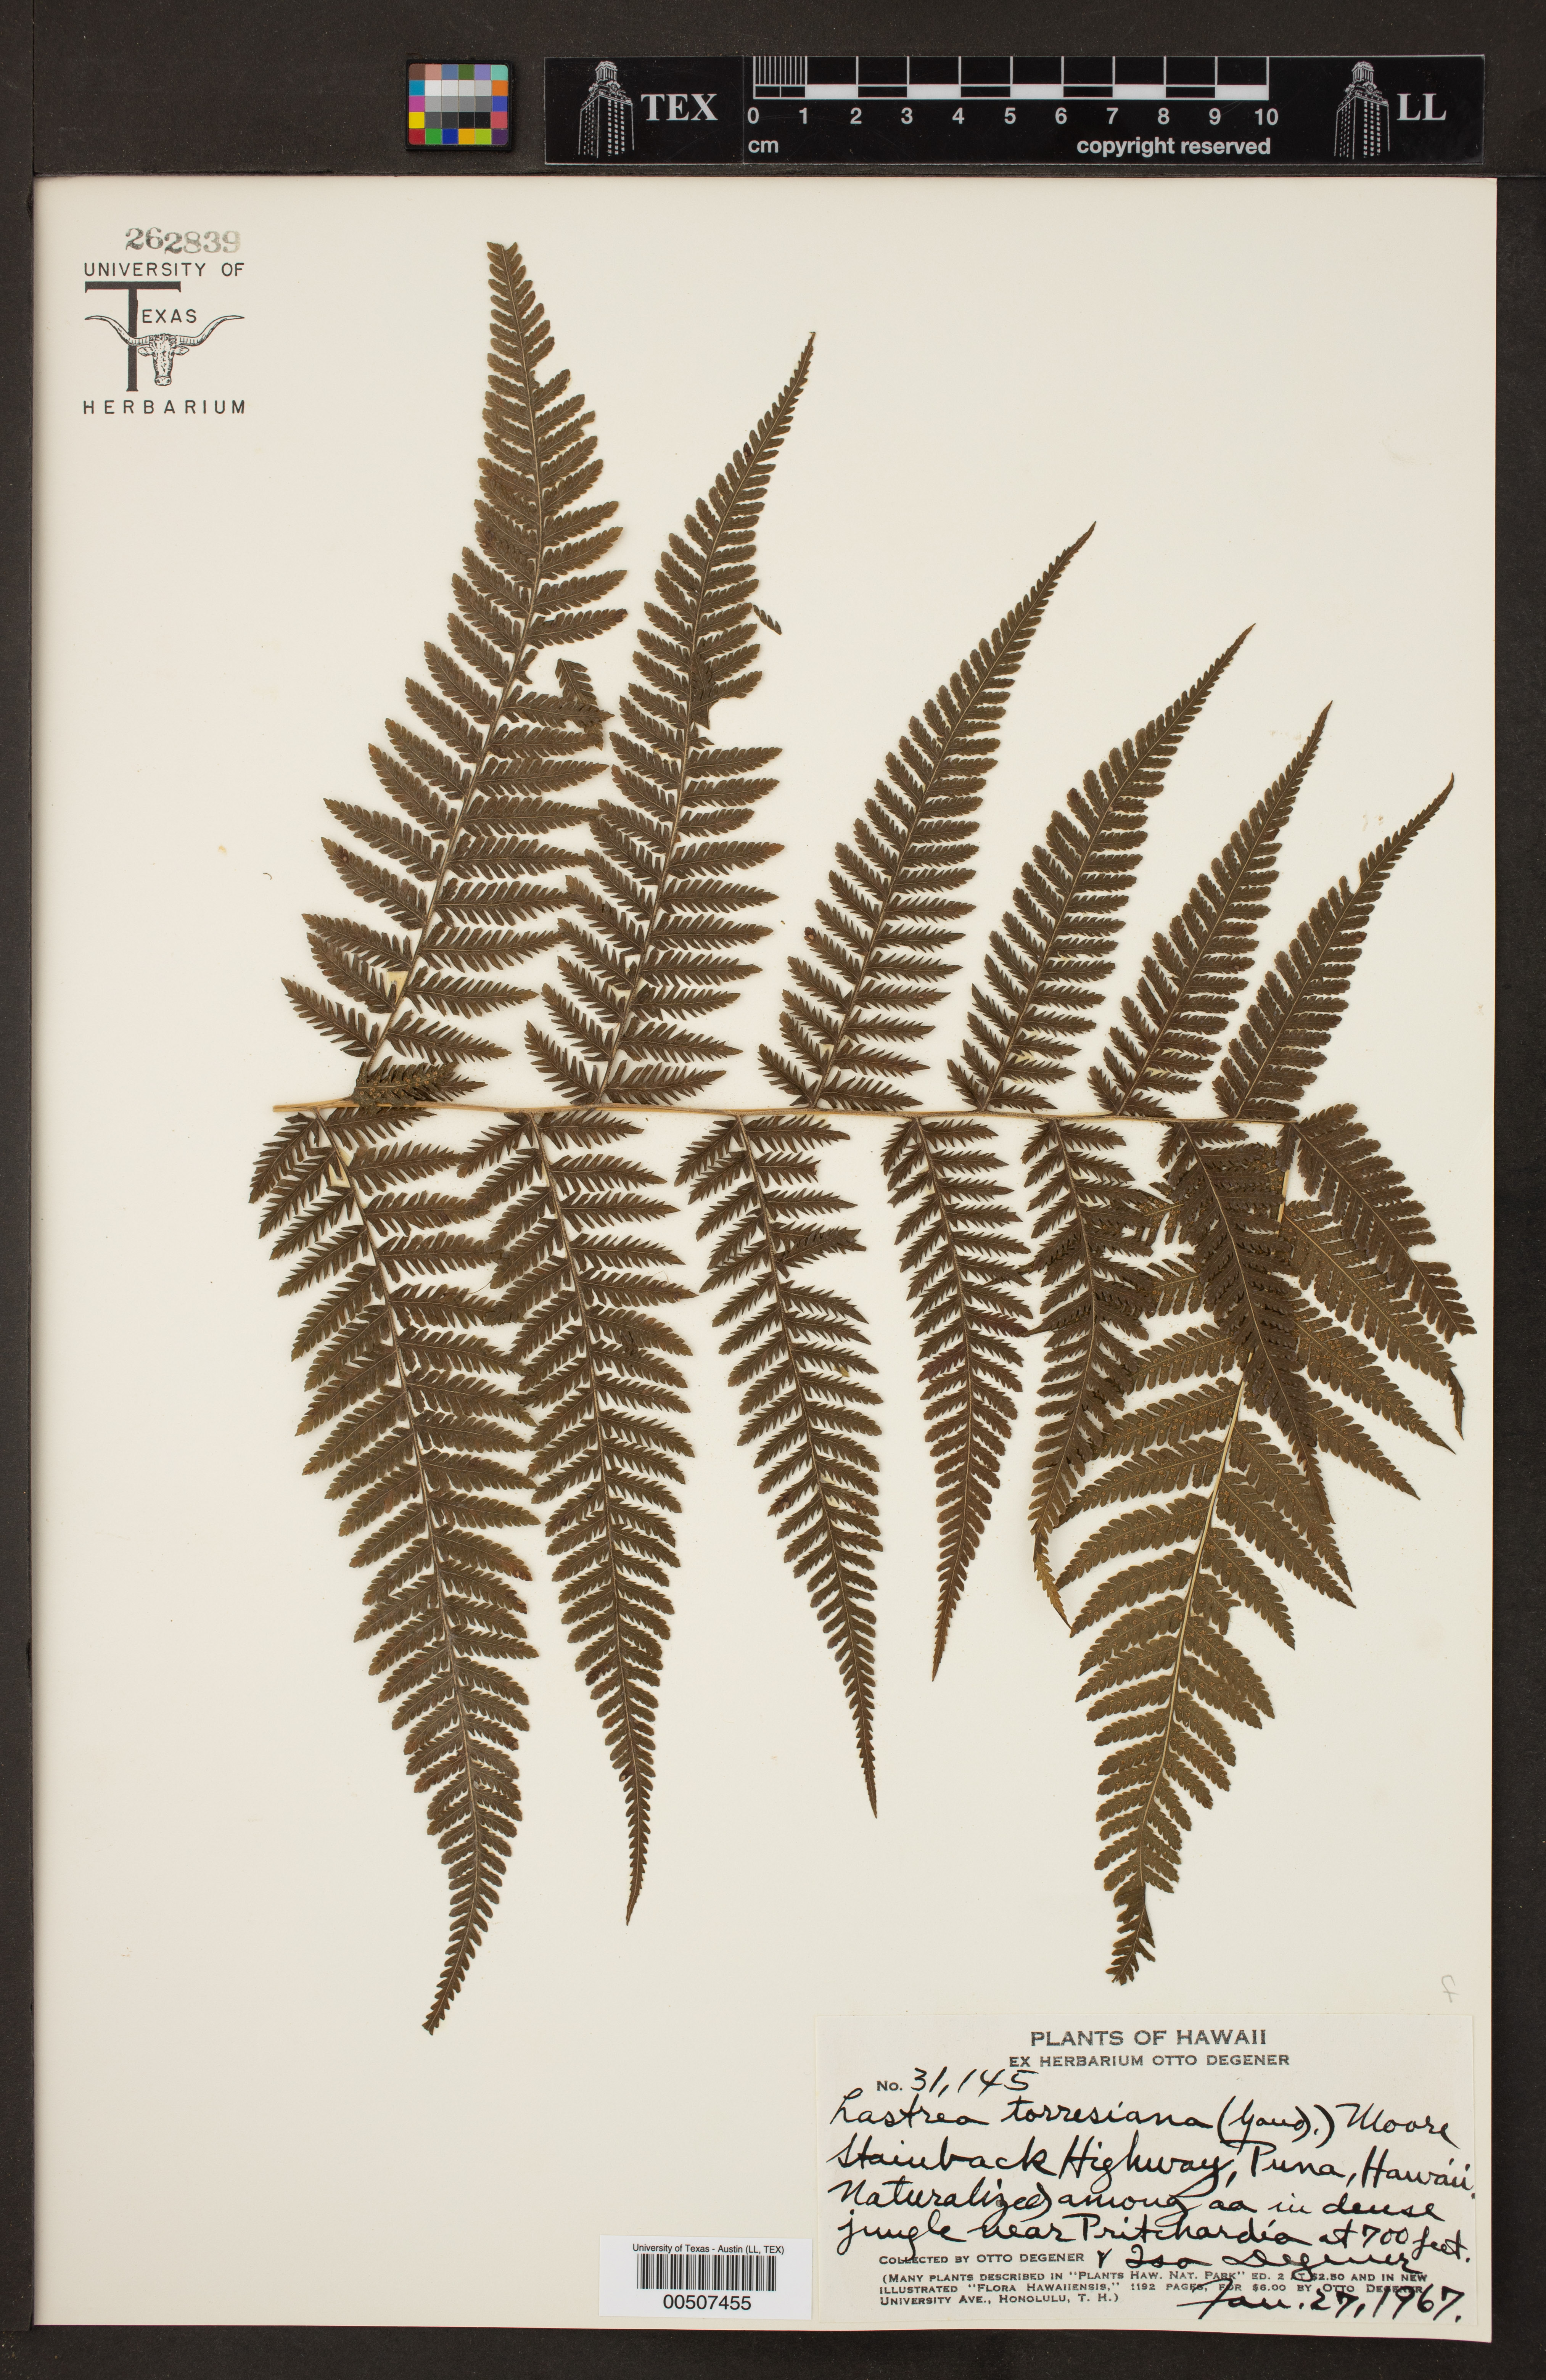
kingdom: Plantae
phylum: Tracheophyta
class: Polypodiopsida
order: Polypodiales
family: Thelypteridaceae
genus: Macrothelypteris
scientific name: Macrothelypteris torresiana
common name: Swordfern
